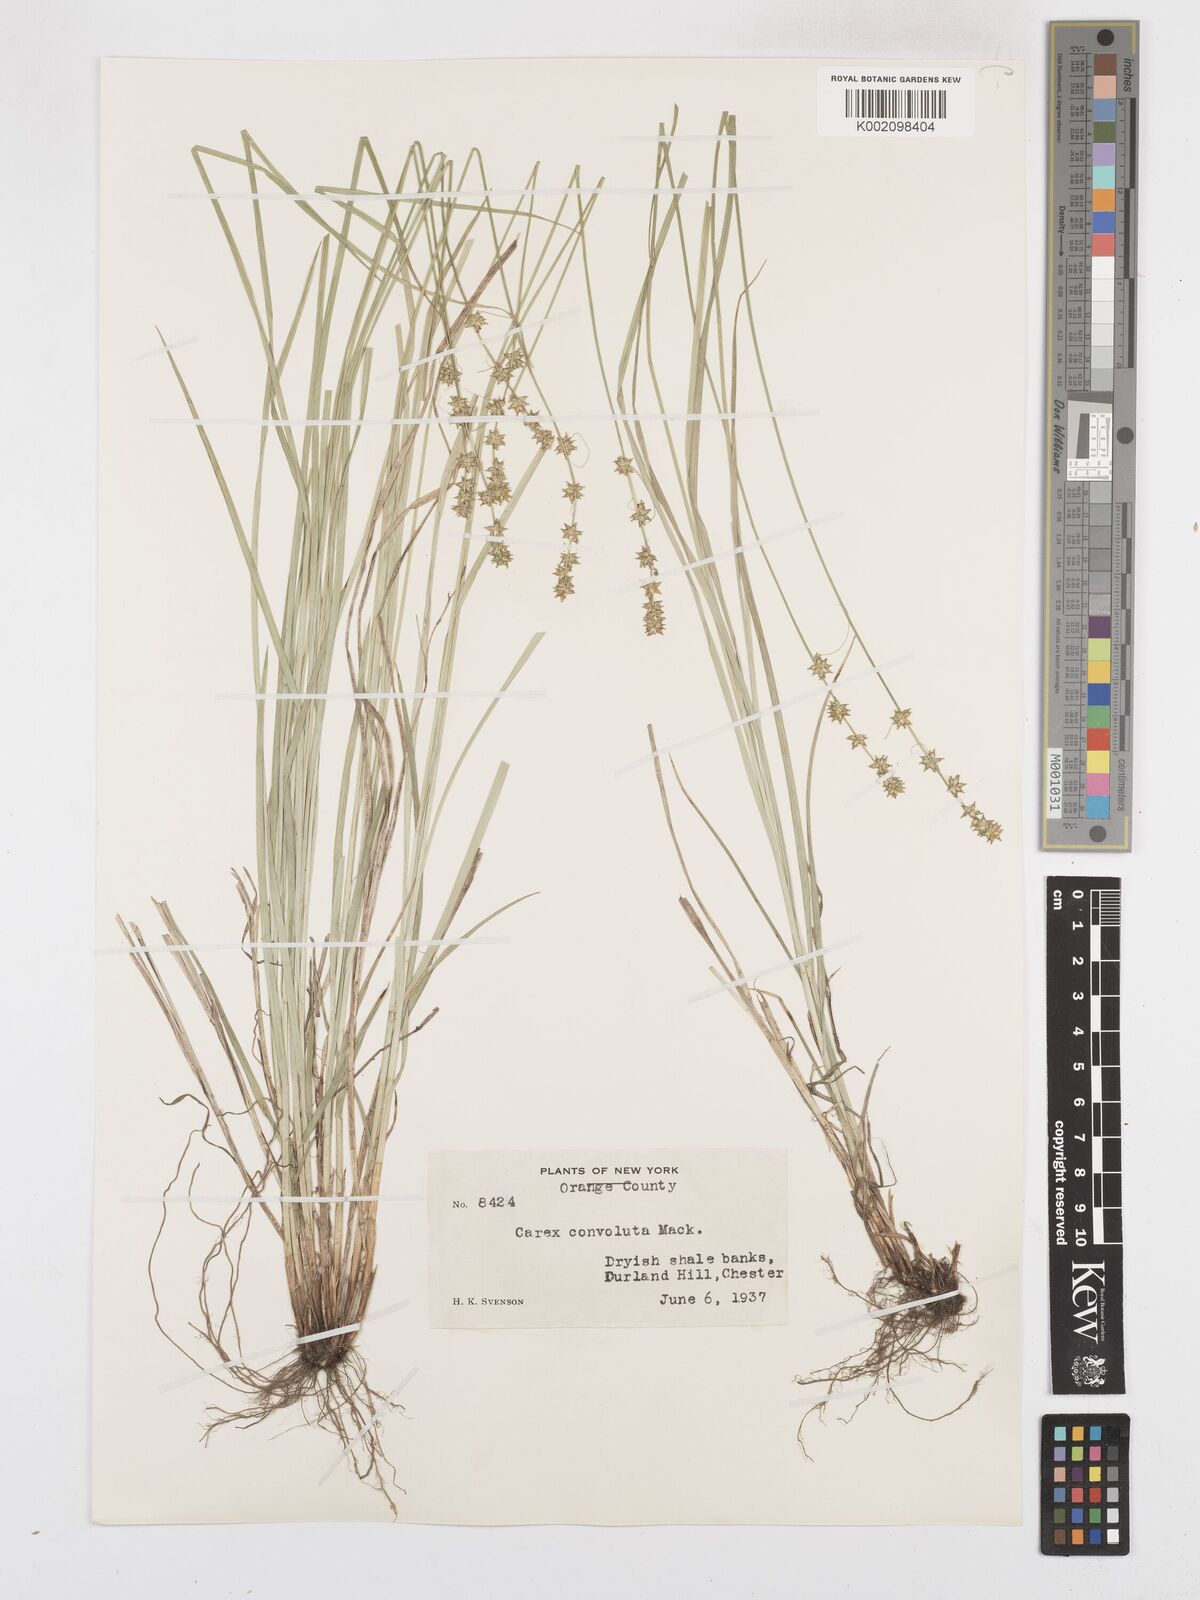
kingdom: Plantae
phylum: Tracheophyta
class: Liliopsida
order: Poales
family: Cyperaceae
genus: Carex
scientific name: Carex rosea
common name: Curly-styled wood sedge
